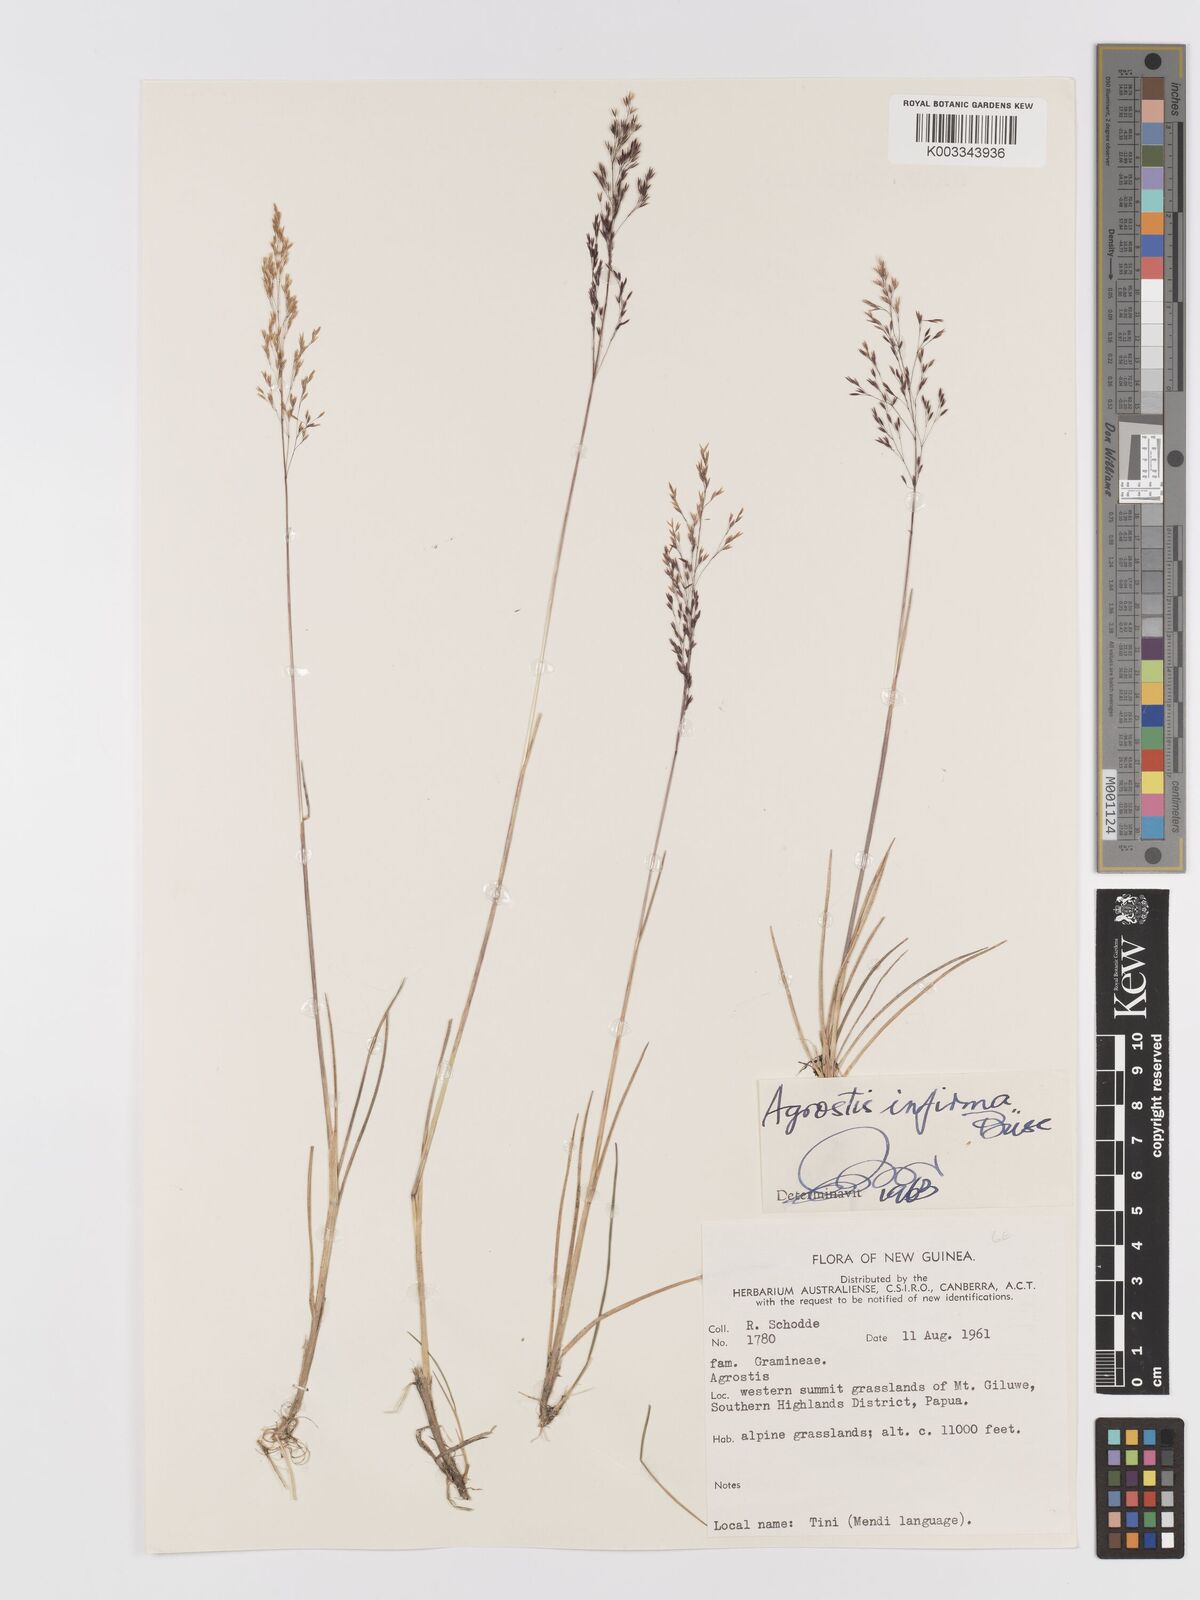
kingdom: Plantae
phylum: Tracheophyta
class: Liliopsida
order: Poales
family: Poaceae
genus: Agrostis
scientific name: Agrostis infirma
